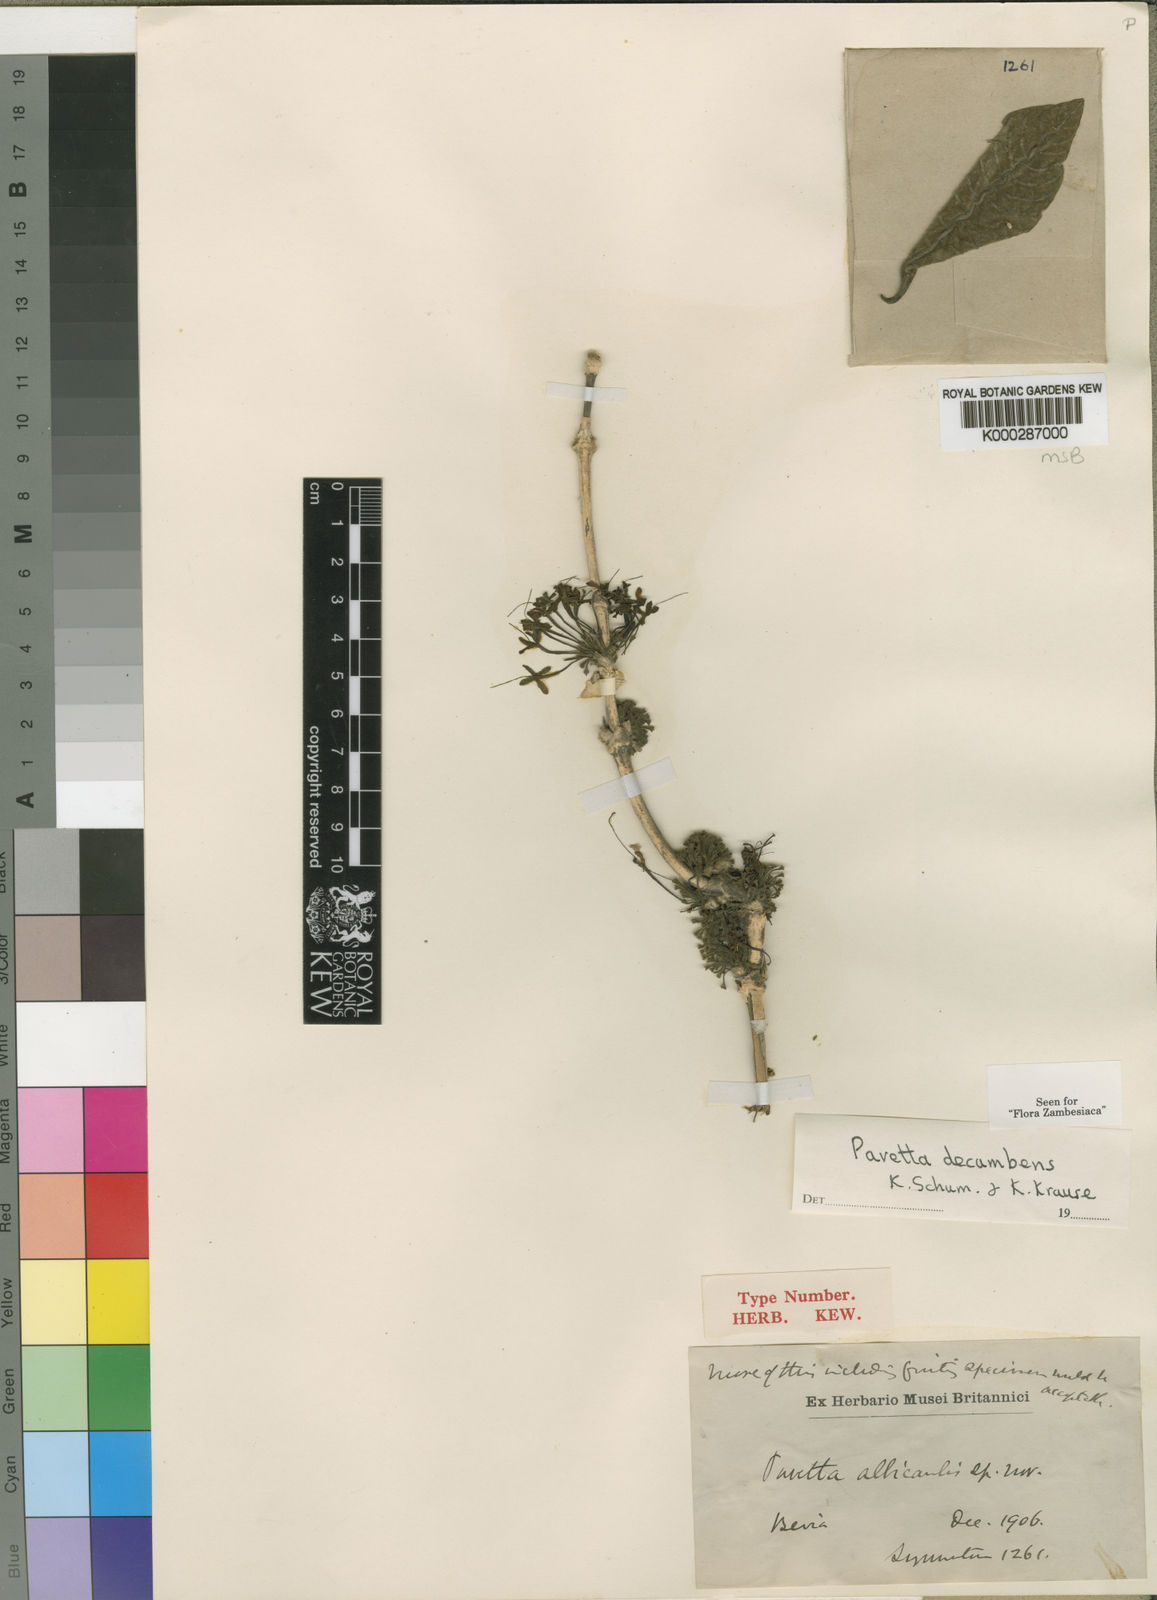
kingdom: Plantae
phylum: Tracheophyta
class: Magnoliopsida
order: Gentianales
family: Rubiaceae
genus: Pavetta
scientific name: Pavetta decumbens
